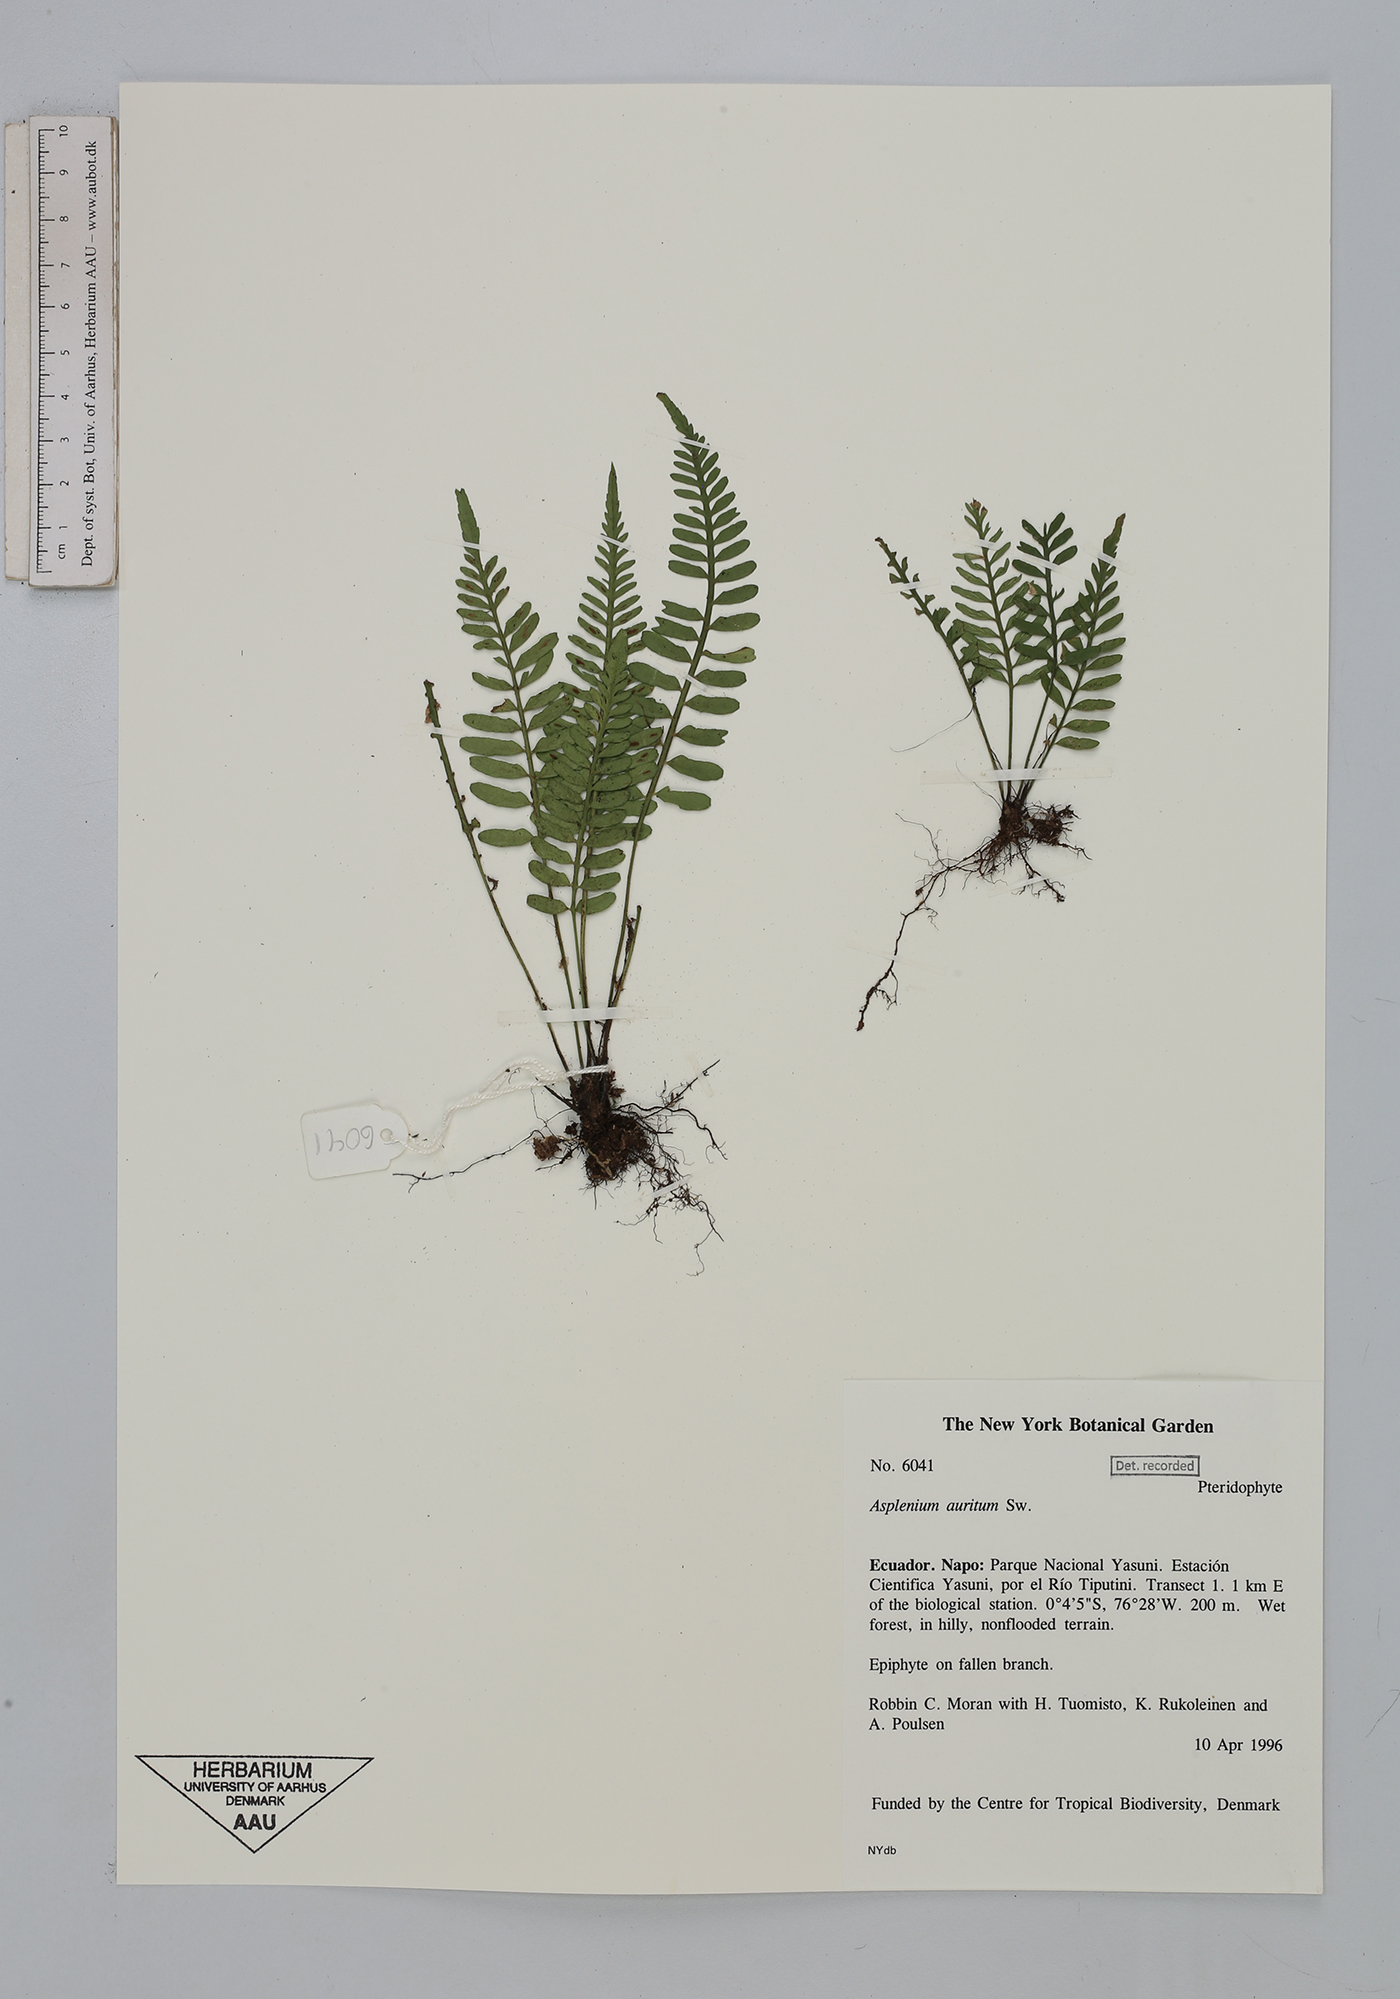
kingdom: Plantae
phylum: Tracheophyta
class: Polypodiopsida
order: Polypodiales
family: Aspleniaceae
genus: Asplenium
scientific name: Asplenium auritum
